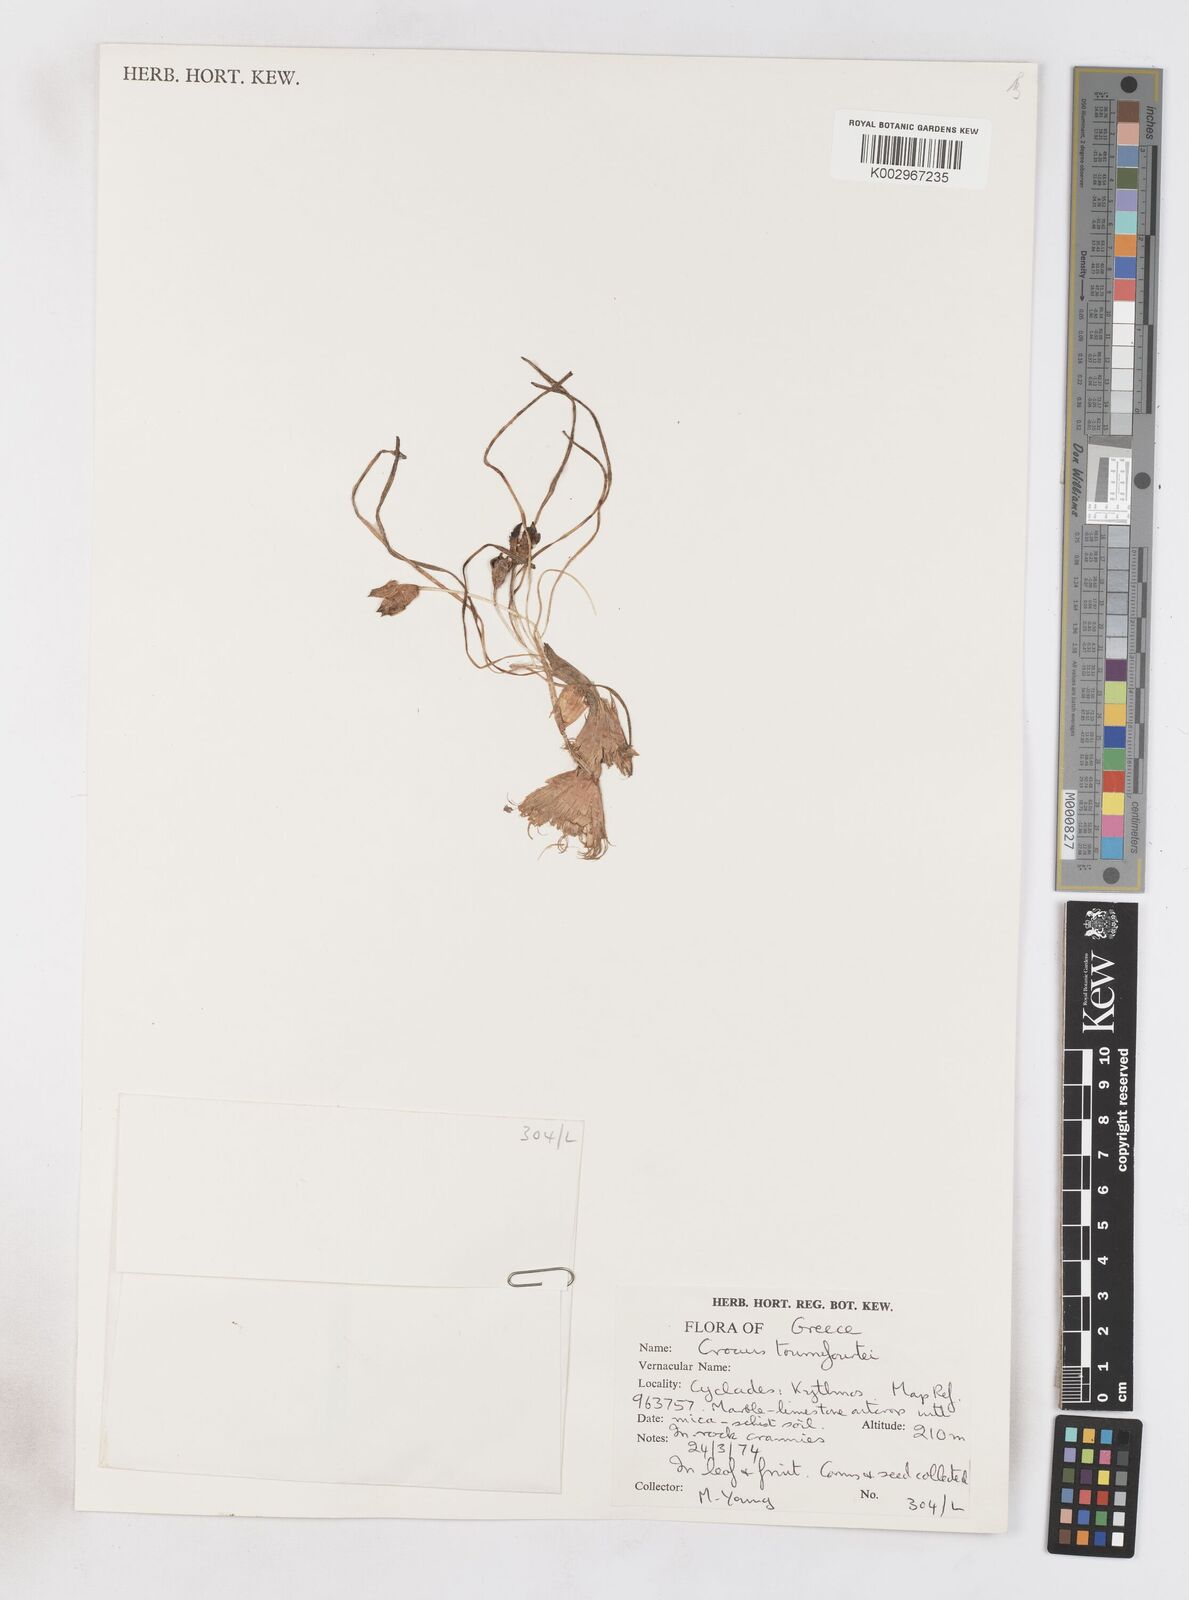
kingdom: Plantae
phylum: Tracheophyta
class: Liliopsida
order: Asparagales
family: Iridaceae
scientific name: Iridaceae
